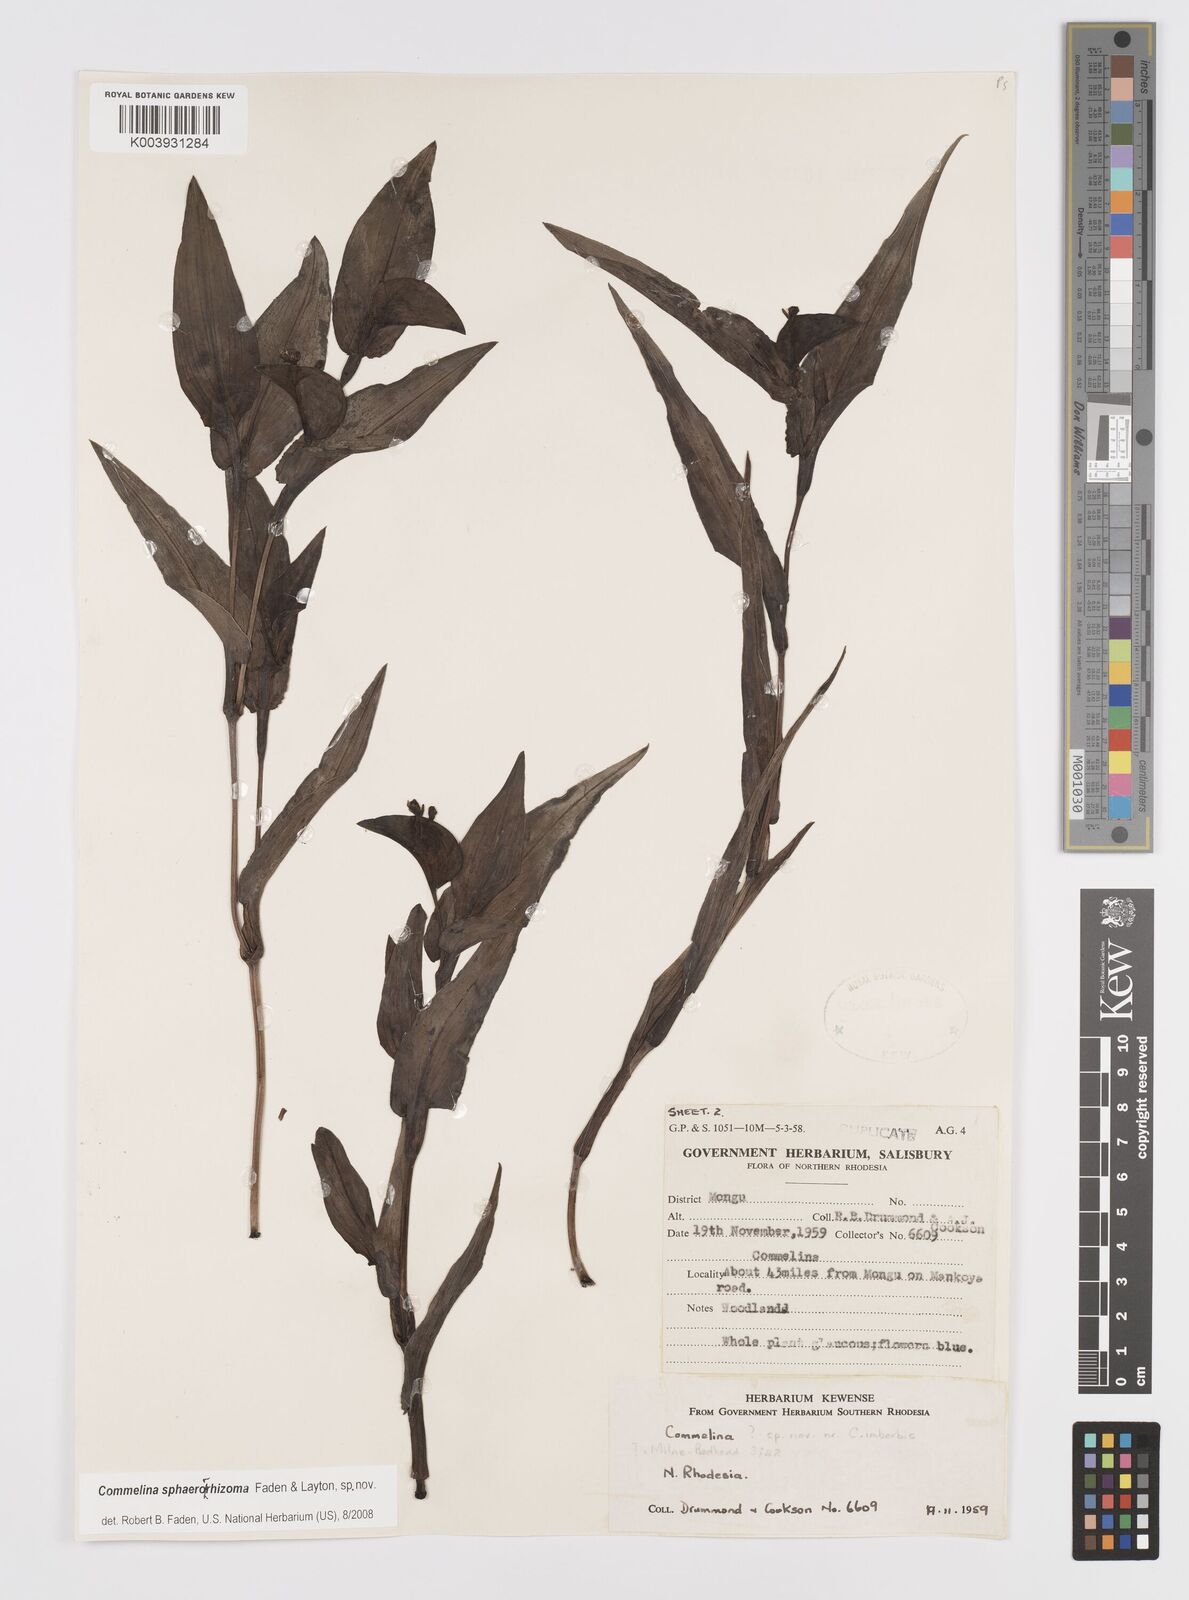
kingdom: Plantae
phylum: Tracheophyta
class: Liliopsida
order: Commelinales
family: Commelinaceae
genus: Commelina
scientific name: Commelina sphaerorrhizoma
